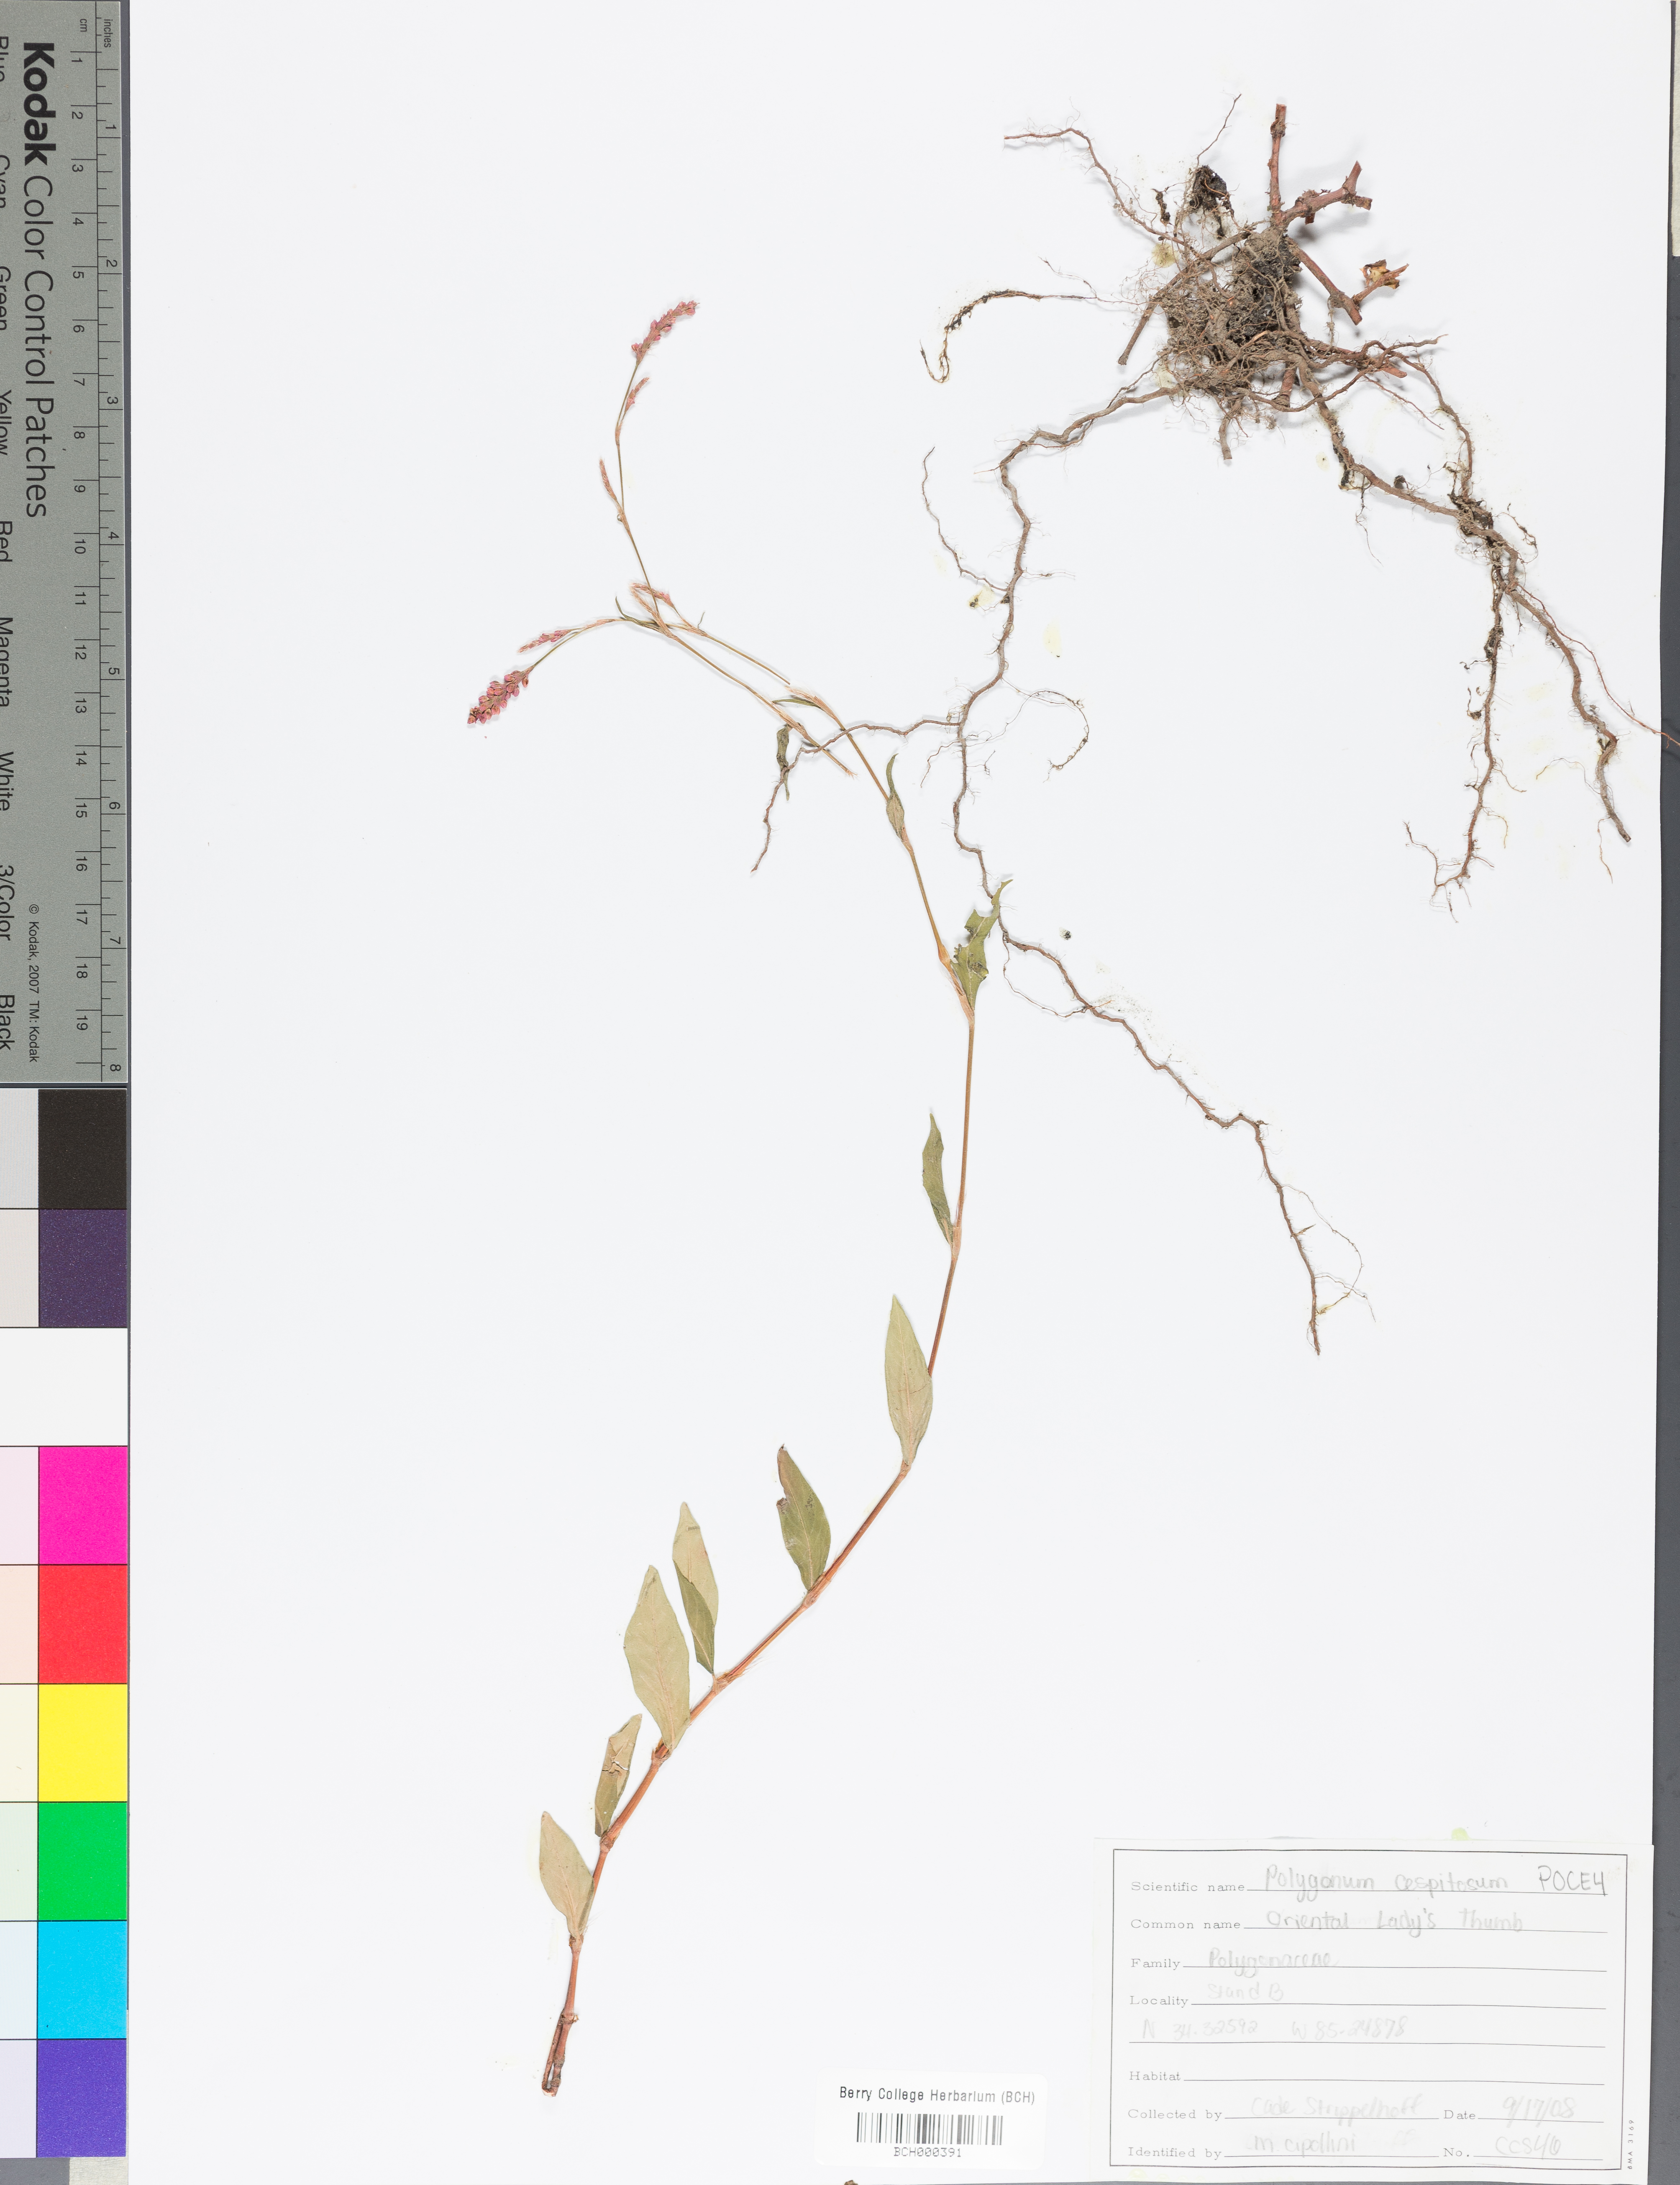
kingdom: Plantae
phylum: Tracheophyta
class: Magnoliopsida
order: Caryophyllales
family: Polygonaceae
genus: Persicaria
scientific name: Persicaria posumbu
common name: Oriental lady's thumb
